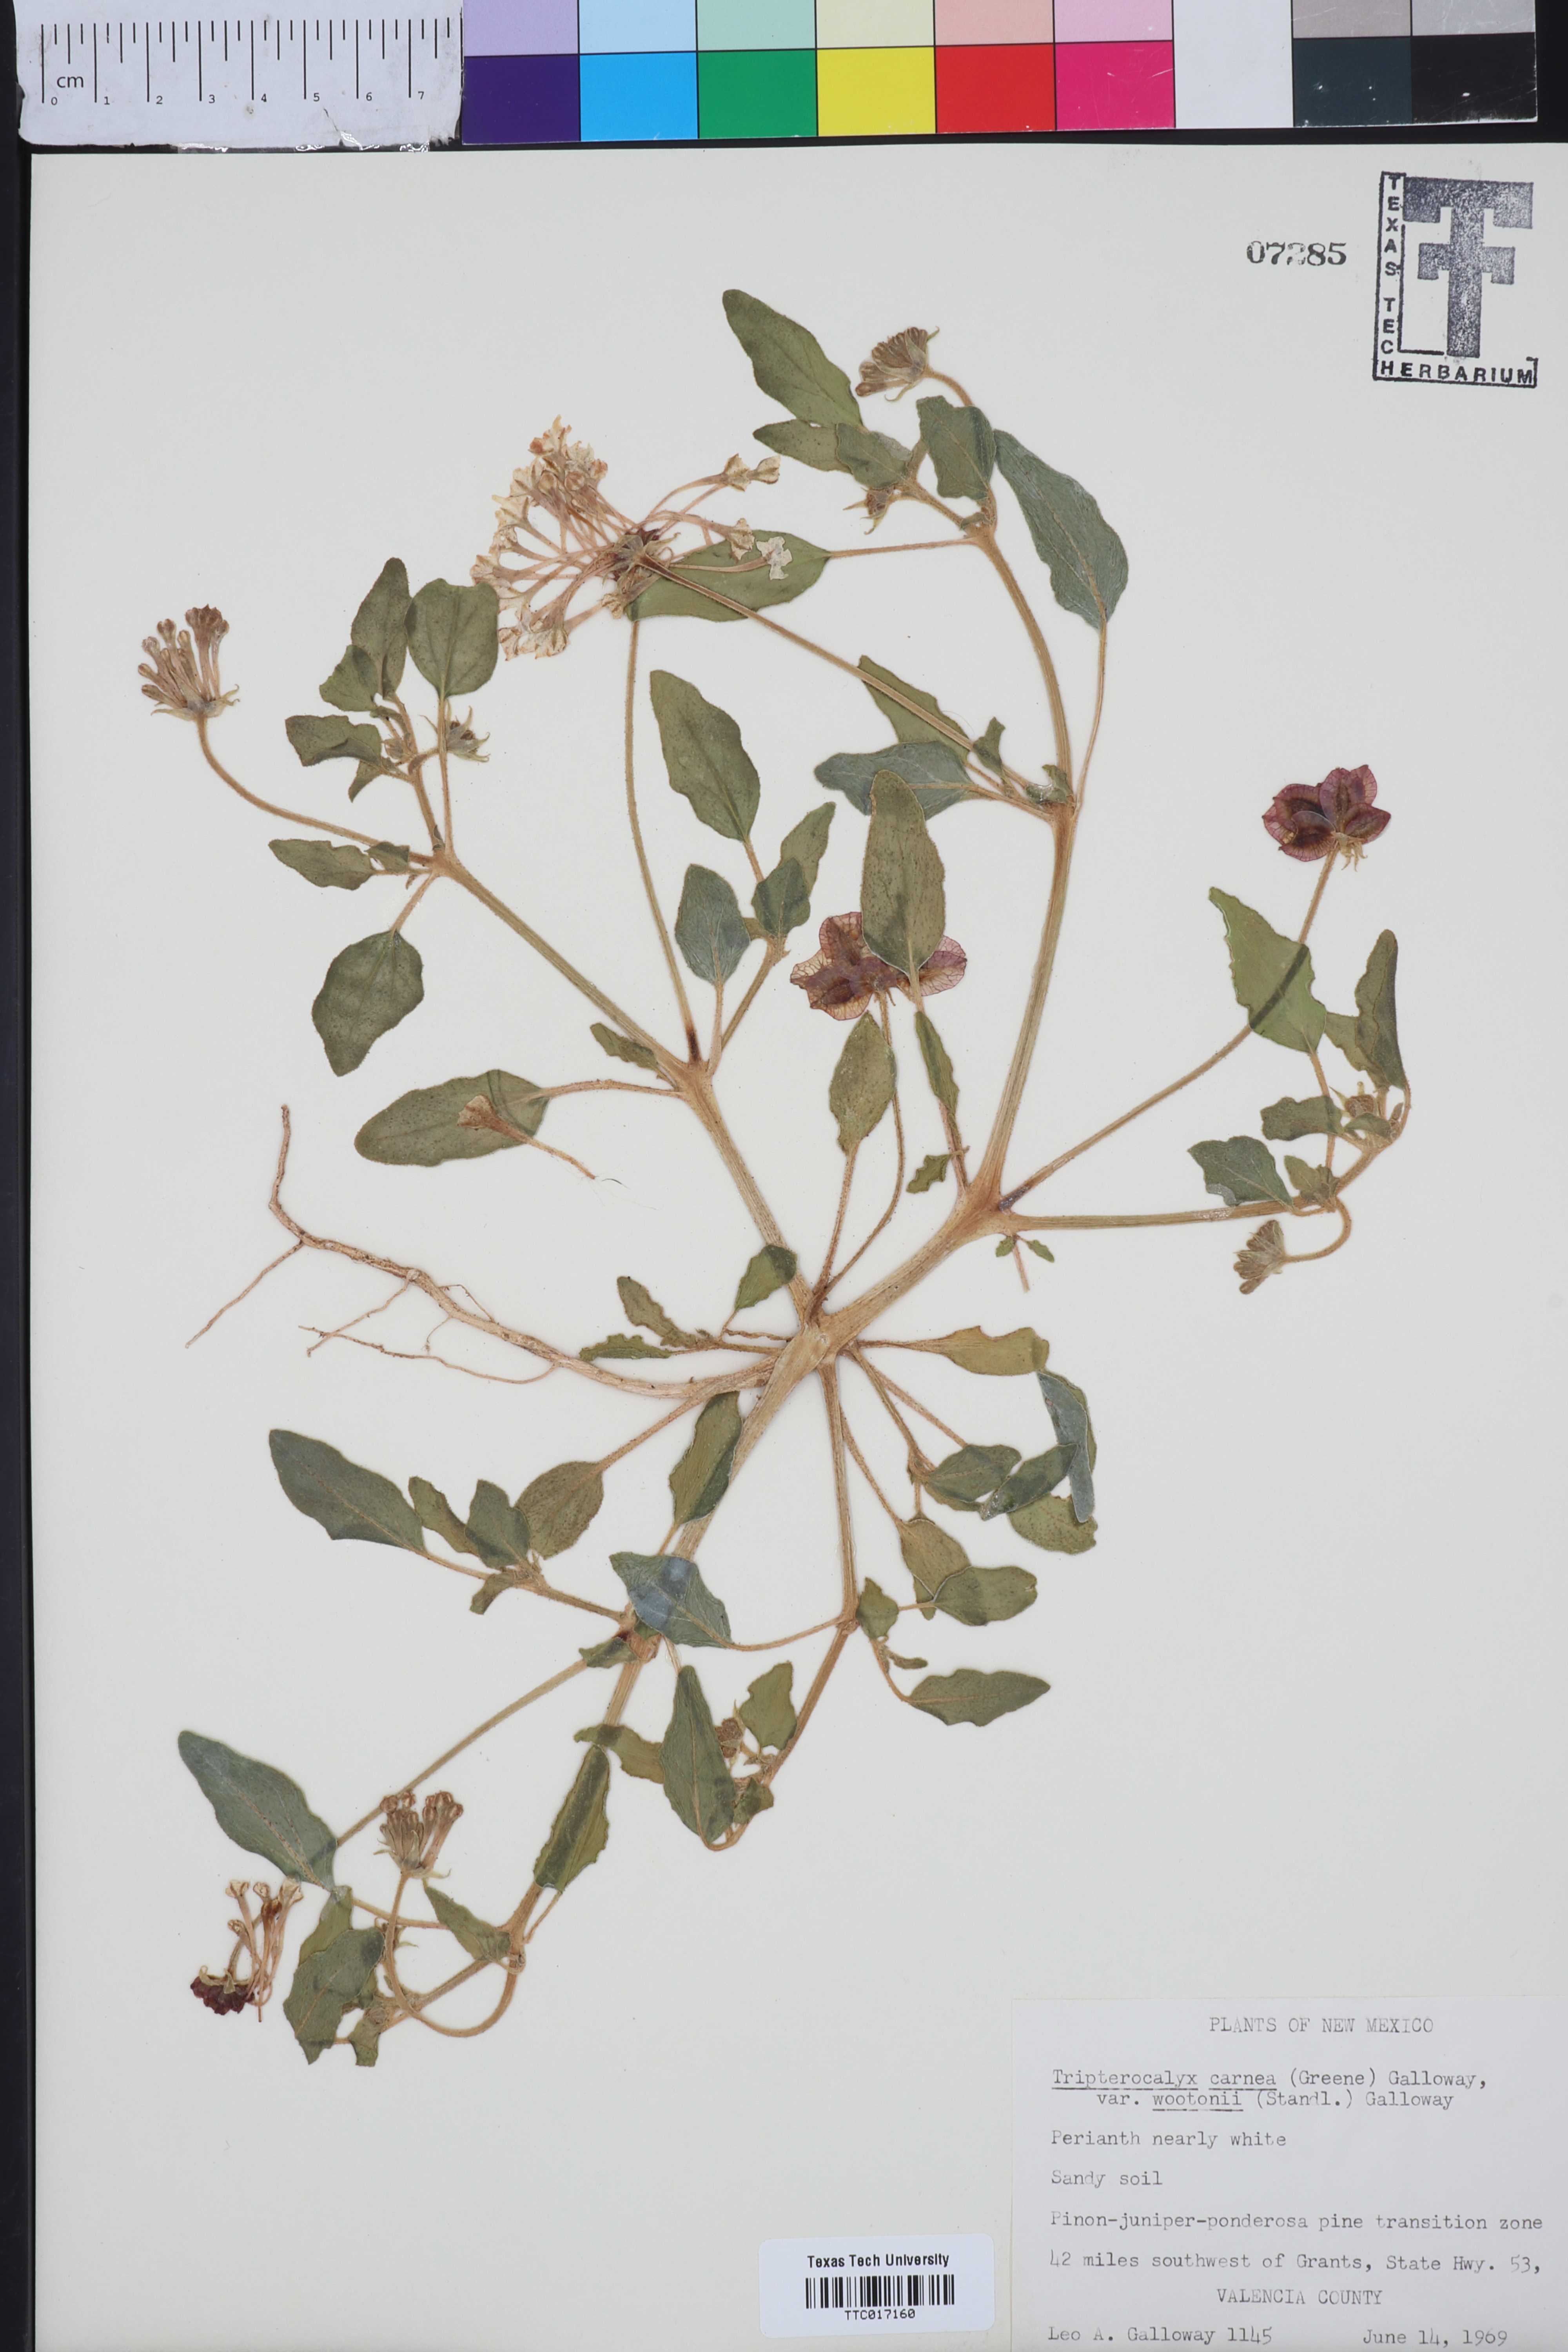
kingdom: Plantae
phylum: Tracheophyta
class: Magnoliopsida
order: Caryophyllales
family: Nyctaginaceae
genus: Tripterocalyx
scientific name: Tripterocalyx wootonii
